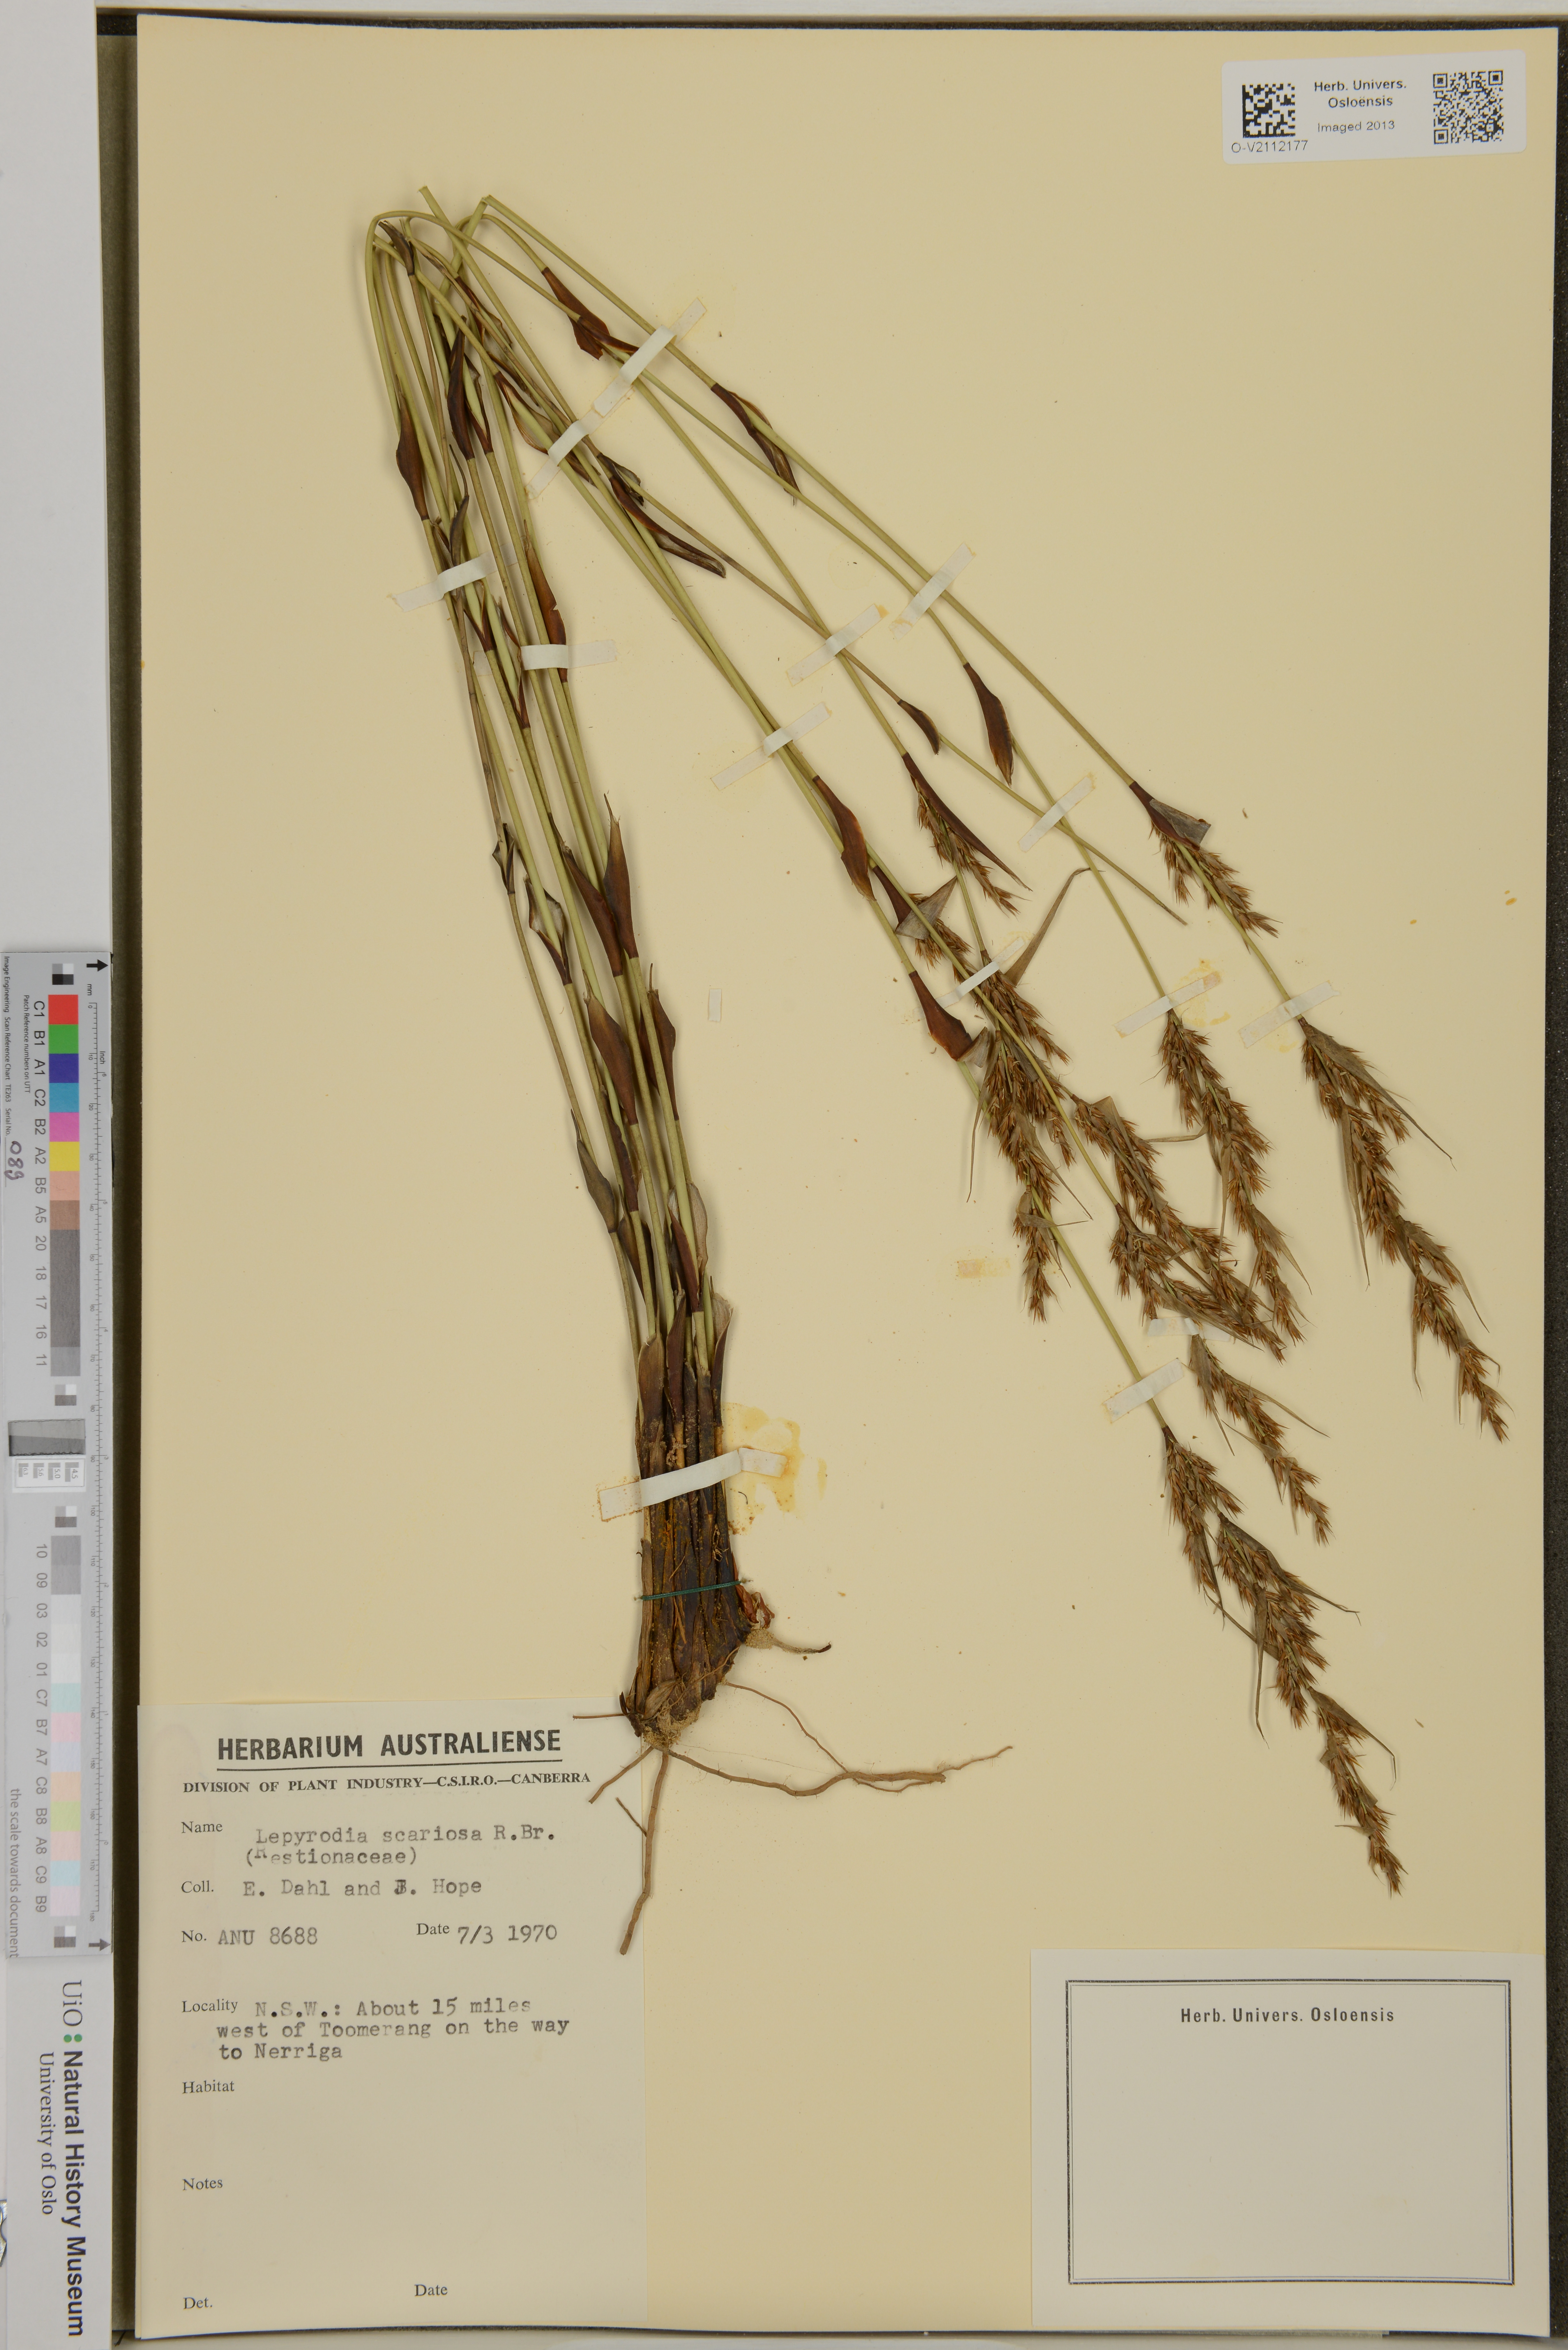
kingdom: Plantae
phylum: Tracheophyta
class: Liliopsida
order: Poales
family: Restionaceae
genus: Lepyrodia
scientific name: Lepyrodia scariosa
